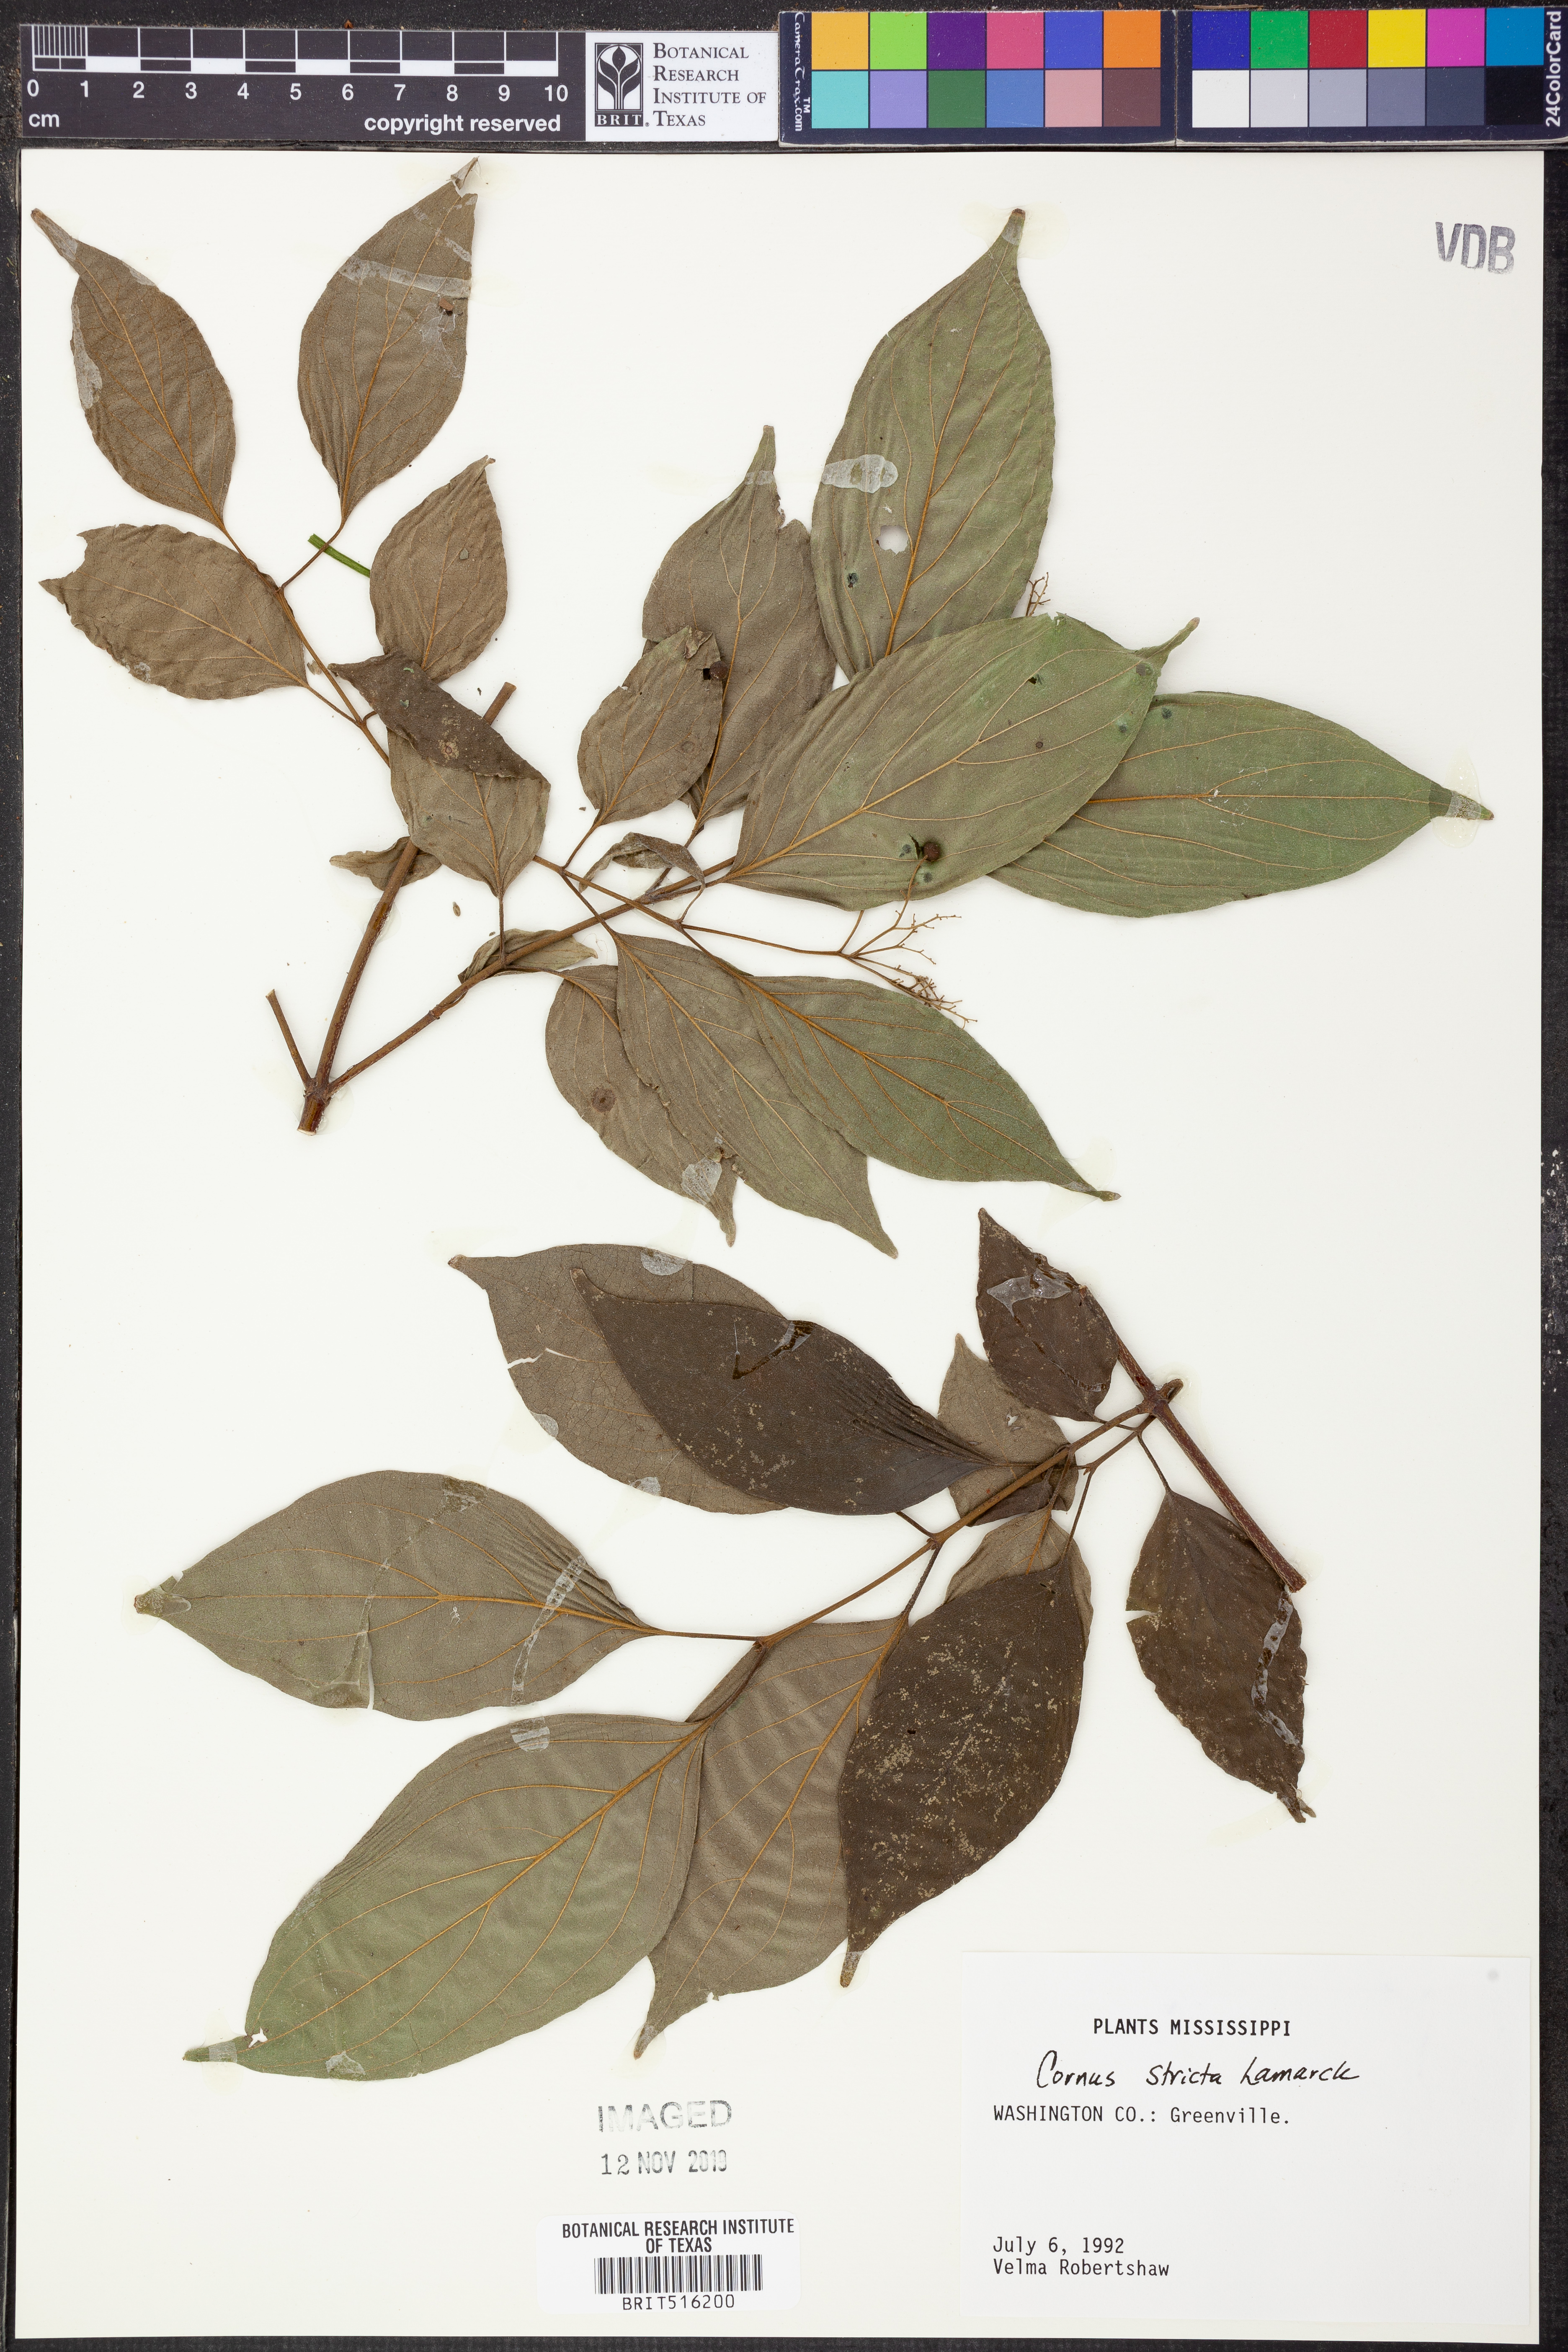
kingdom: Plantae
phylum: Tracheophyta
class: Magnoliopsida
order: Cornales
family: Cornaceae
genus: Cornus
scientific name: Cornus foemina
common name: Swamp dogwood
